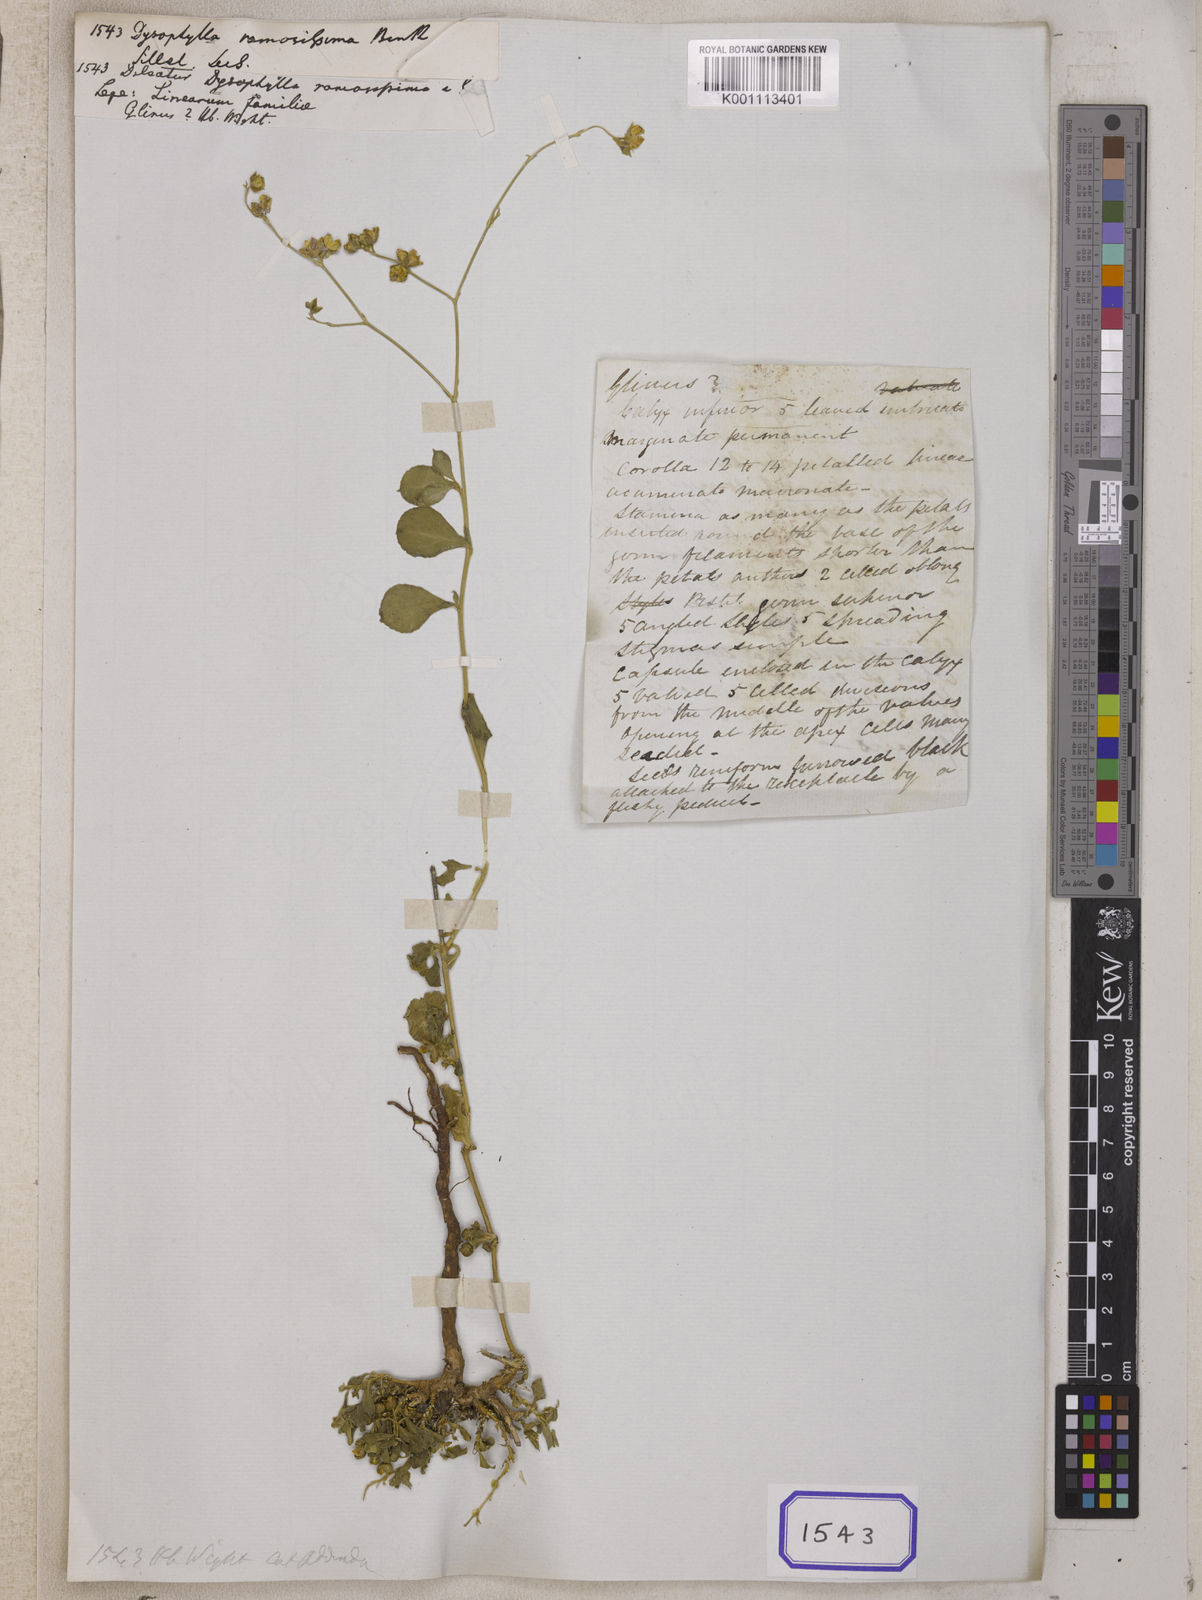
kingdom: Plantae
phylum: Tracheophyta
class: Magnoliopsida
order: Lamiales
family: Lamiaceae
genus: Pogostemon
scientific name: Pogostemon stellatus
